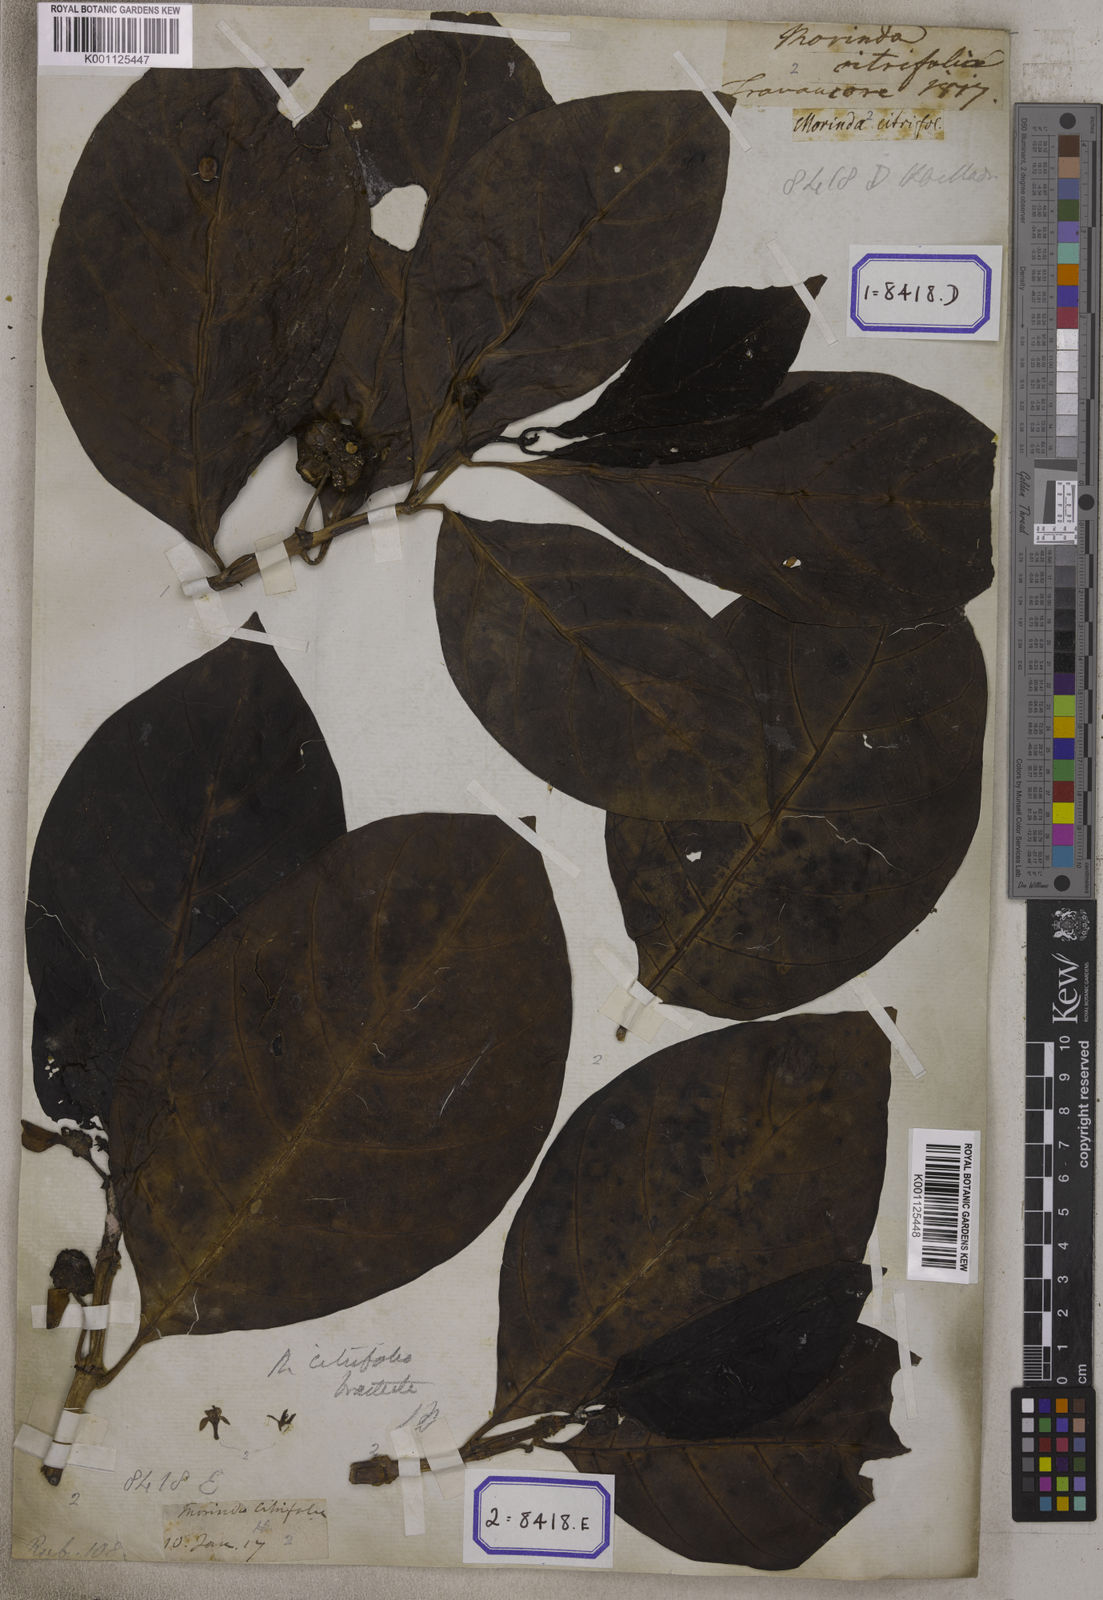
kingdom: Plantae
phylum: Tracheophyta
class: Magnoliopsida
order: Gentianales
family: Rubiaceae
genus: Morinda
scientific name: Morinda citrifolia
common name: Indian-mulberry
